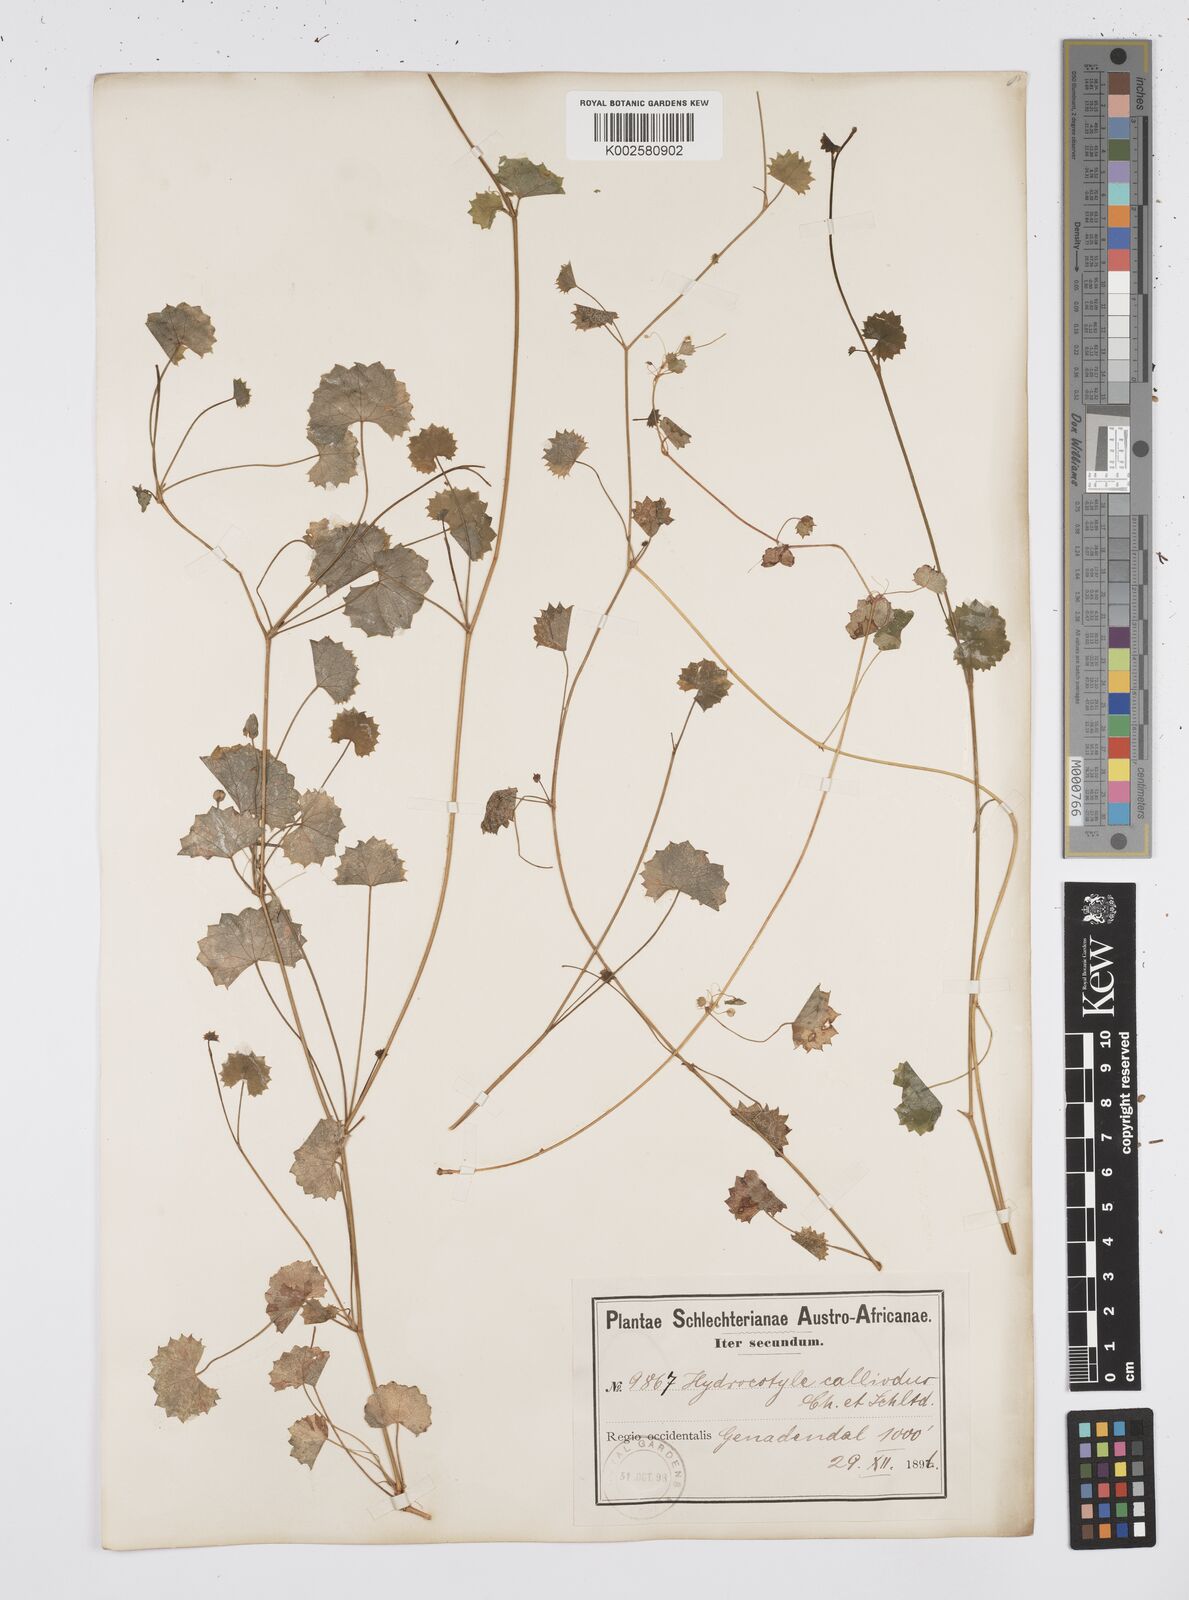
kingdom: Plantae
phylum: Tracheophyta
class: Magnoliopsida
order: Apiales
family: Apiaceae
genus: Centella
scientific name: Centella
